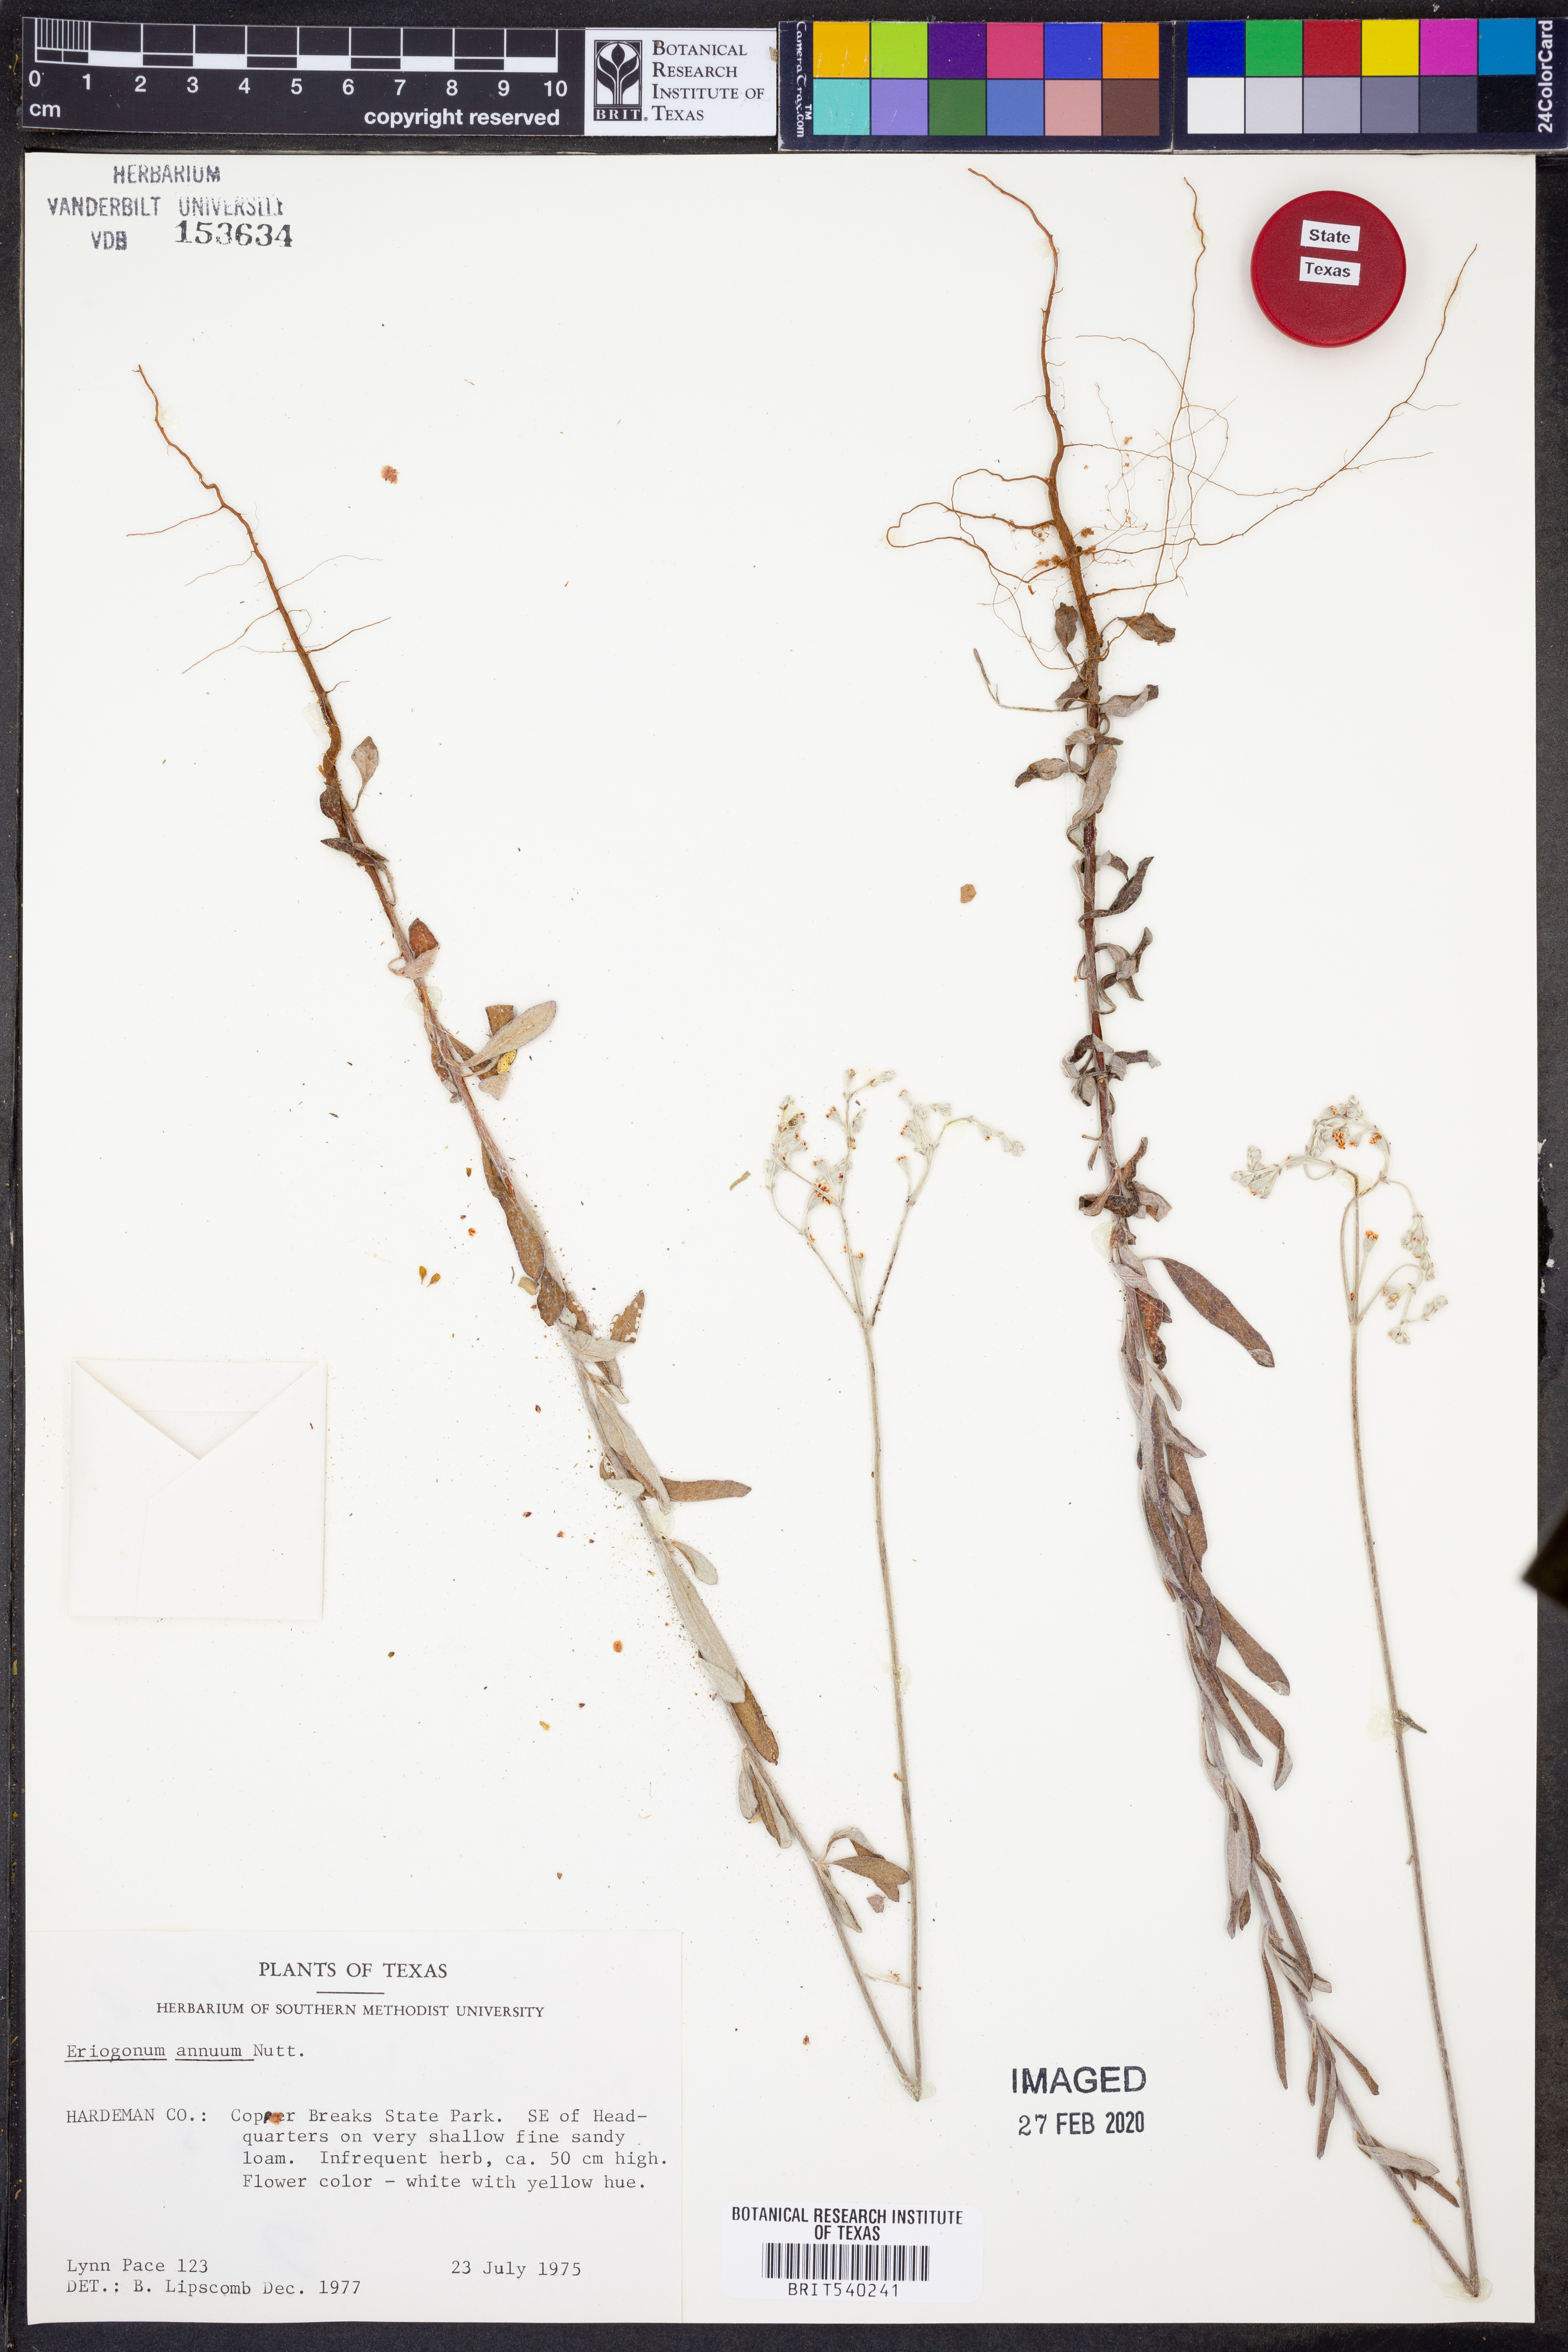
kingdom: Plantae
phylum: Tracheophyta
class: Magnoliopsida
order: Caryophyllales
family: Polygonaceae
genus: Eriogonum
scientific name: Eriogonum annuum
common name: Annual wild buckwheat
